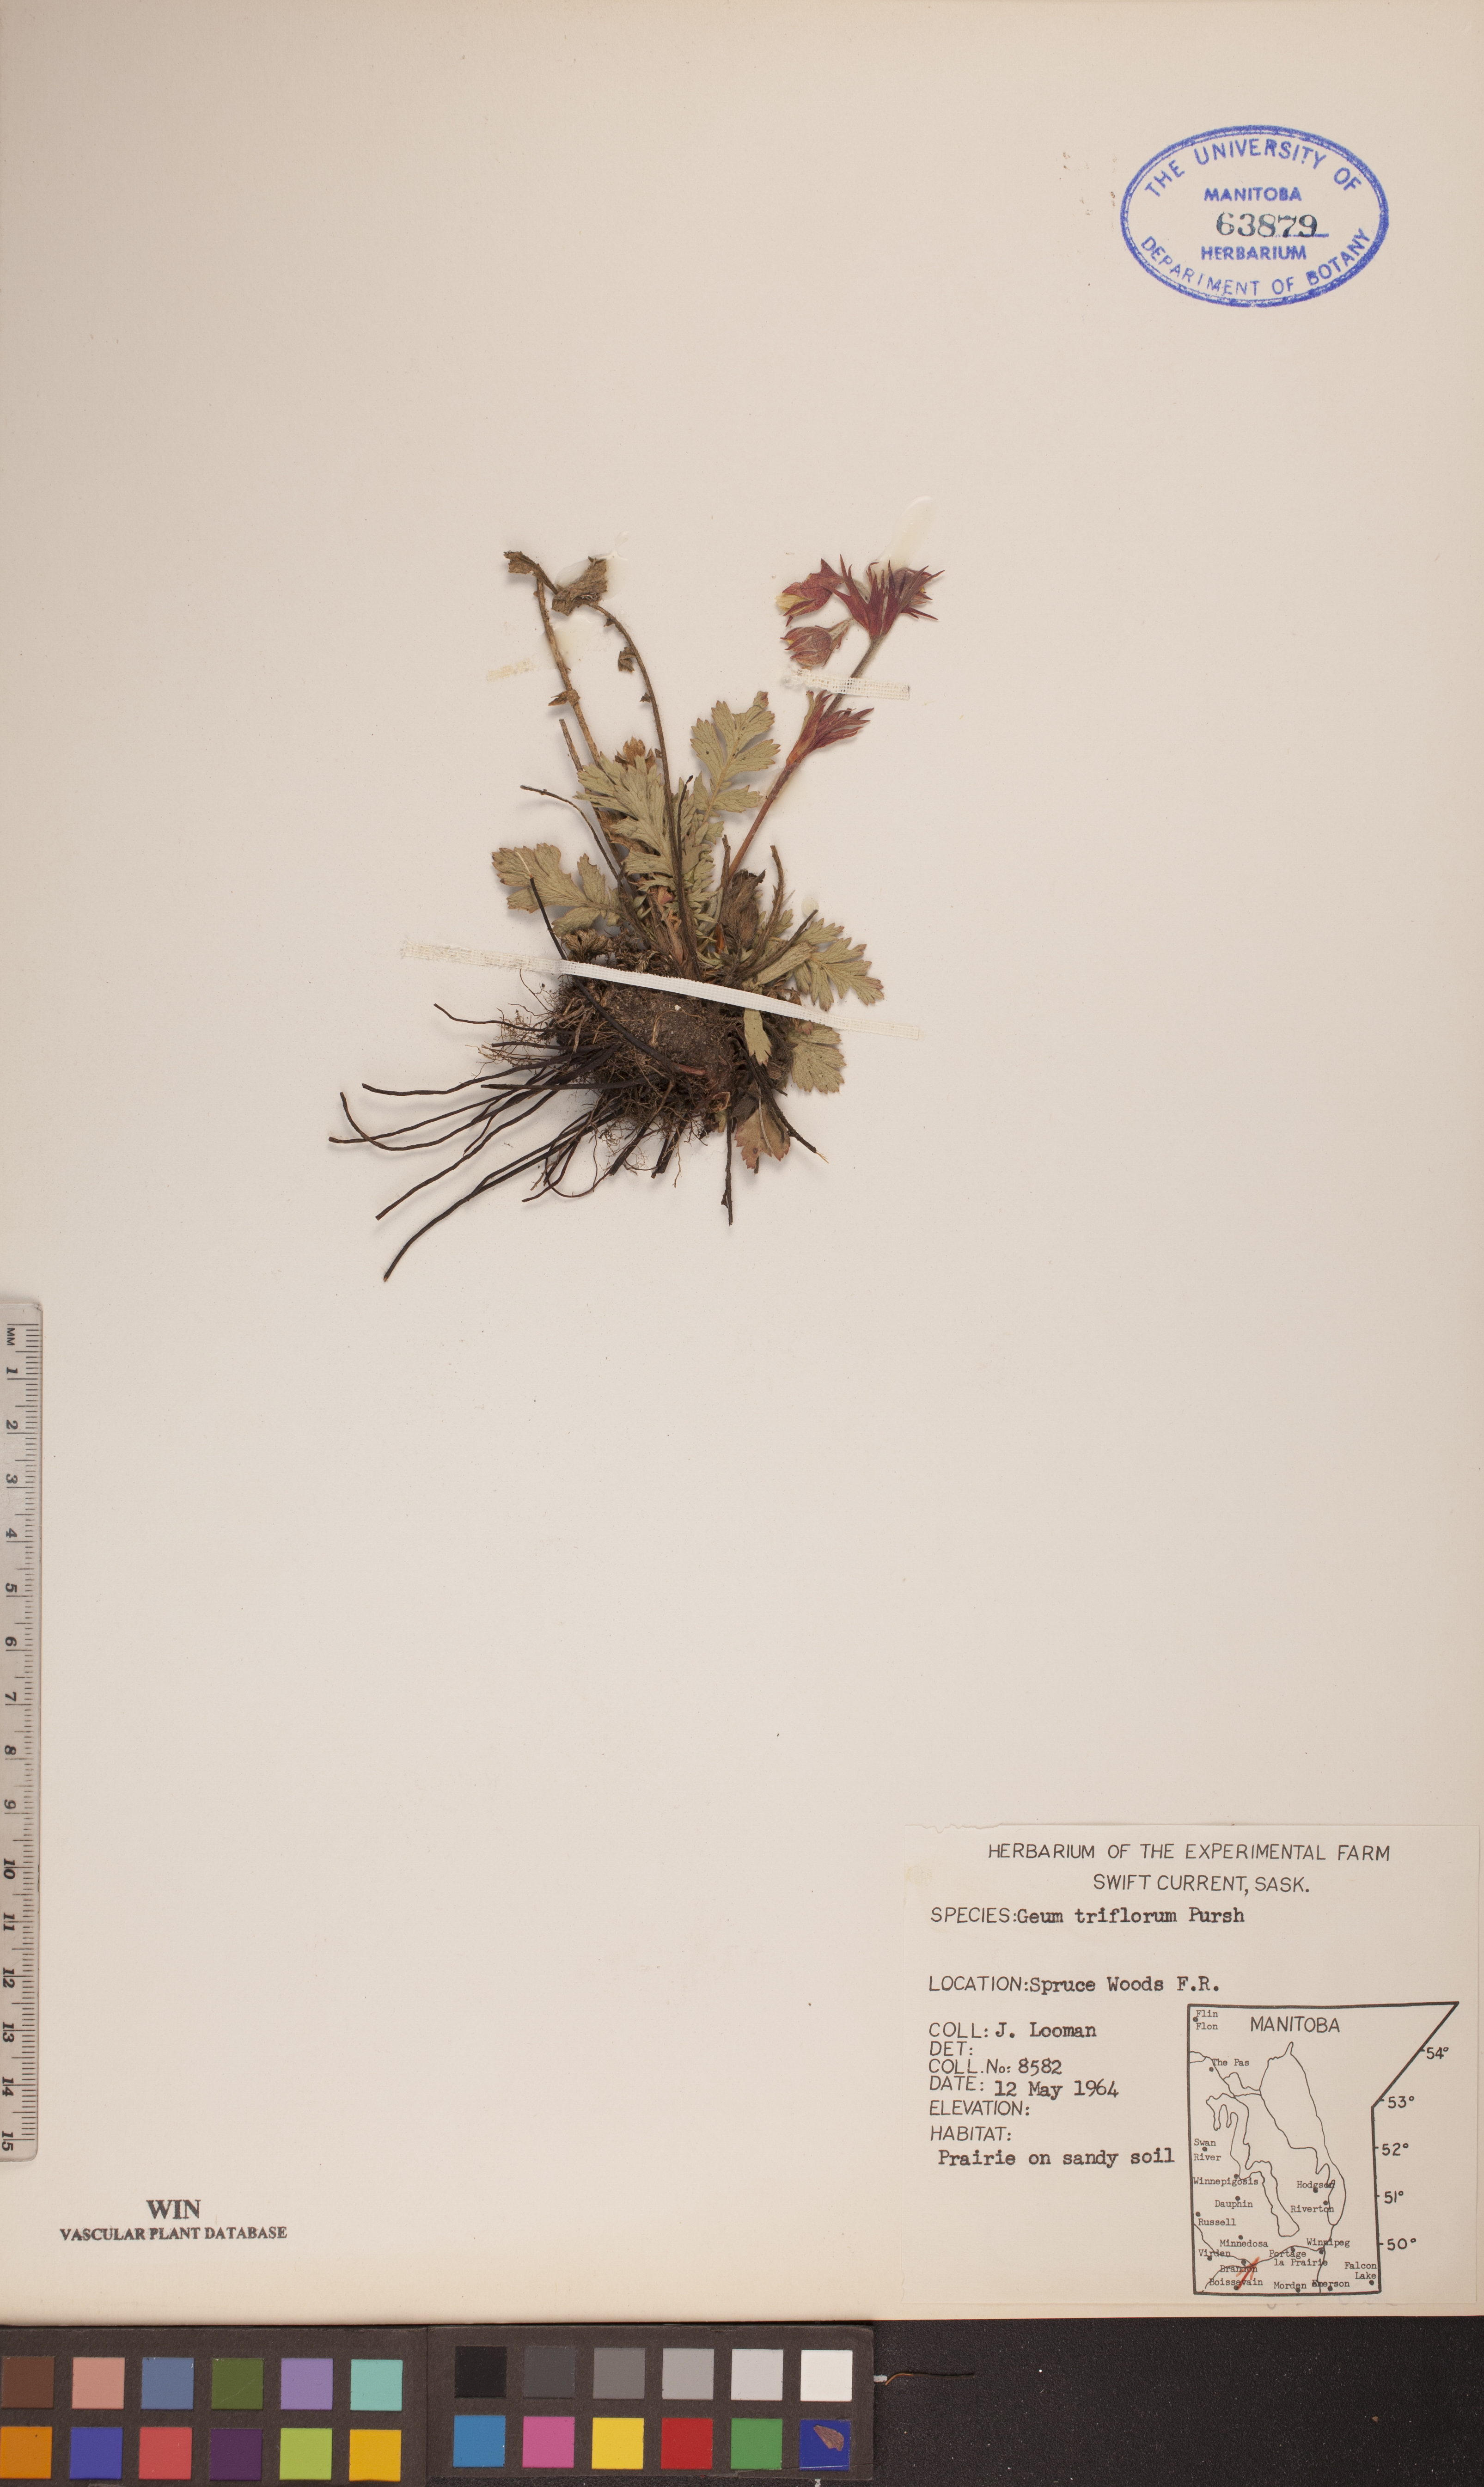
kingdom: Plantae
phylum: Tracheophyta
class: Magnoliopsida
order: Rosales
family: Rosaceae
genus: Geum
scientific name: Geum triflorum
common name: Old man's whiskers
